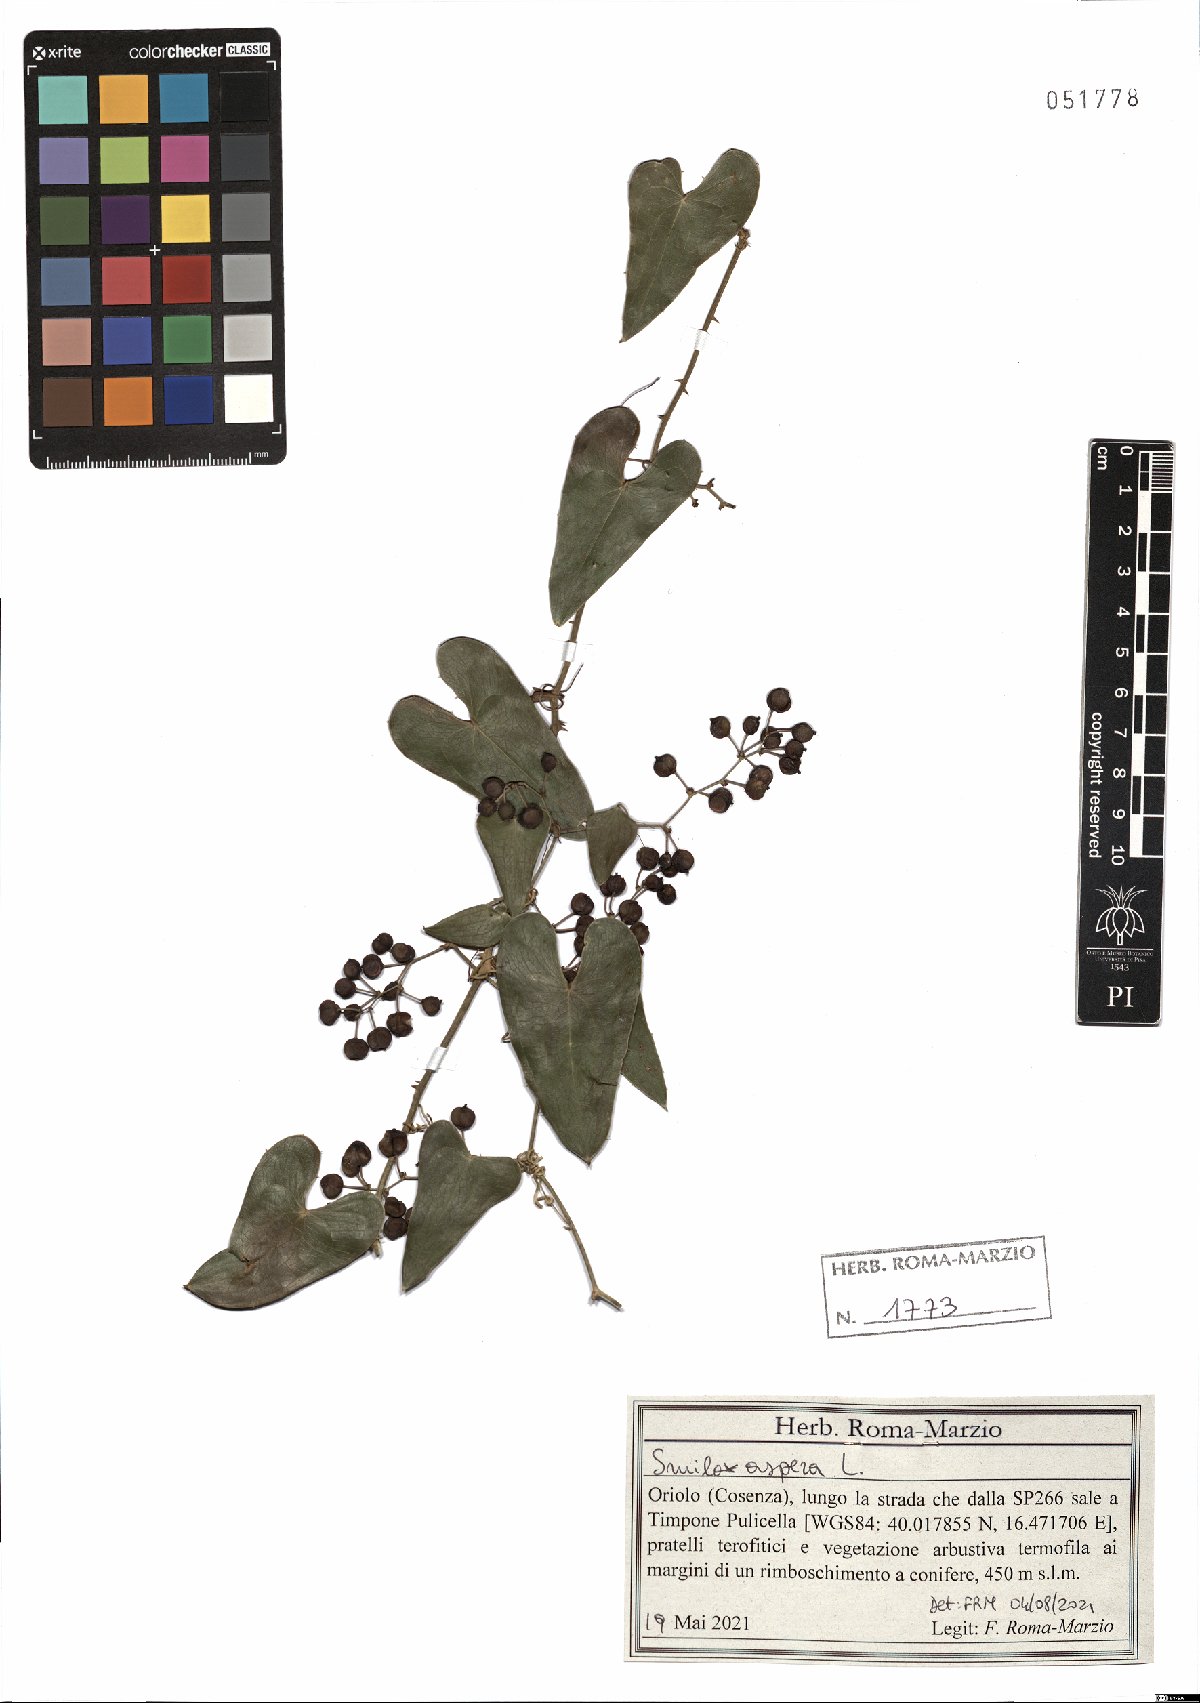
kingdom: Plantae
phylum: Tracheophyta
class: Liliopsida
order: Liliales
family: Smilacaceae
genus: Smilax
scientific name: Smilax aspera
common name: Common smilax
